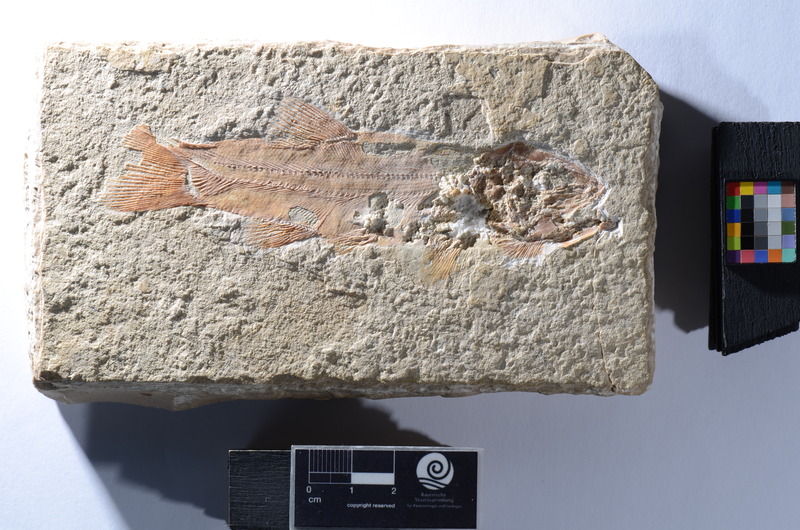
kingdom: Animalia
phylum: Chordata
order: Amiiformes
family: Liodesmidae
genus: Liodesmus
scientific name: Liodesmus
